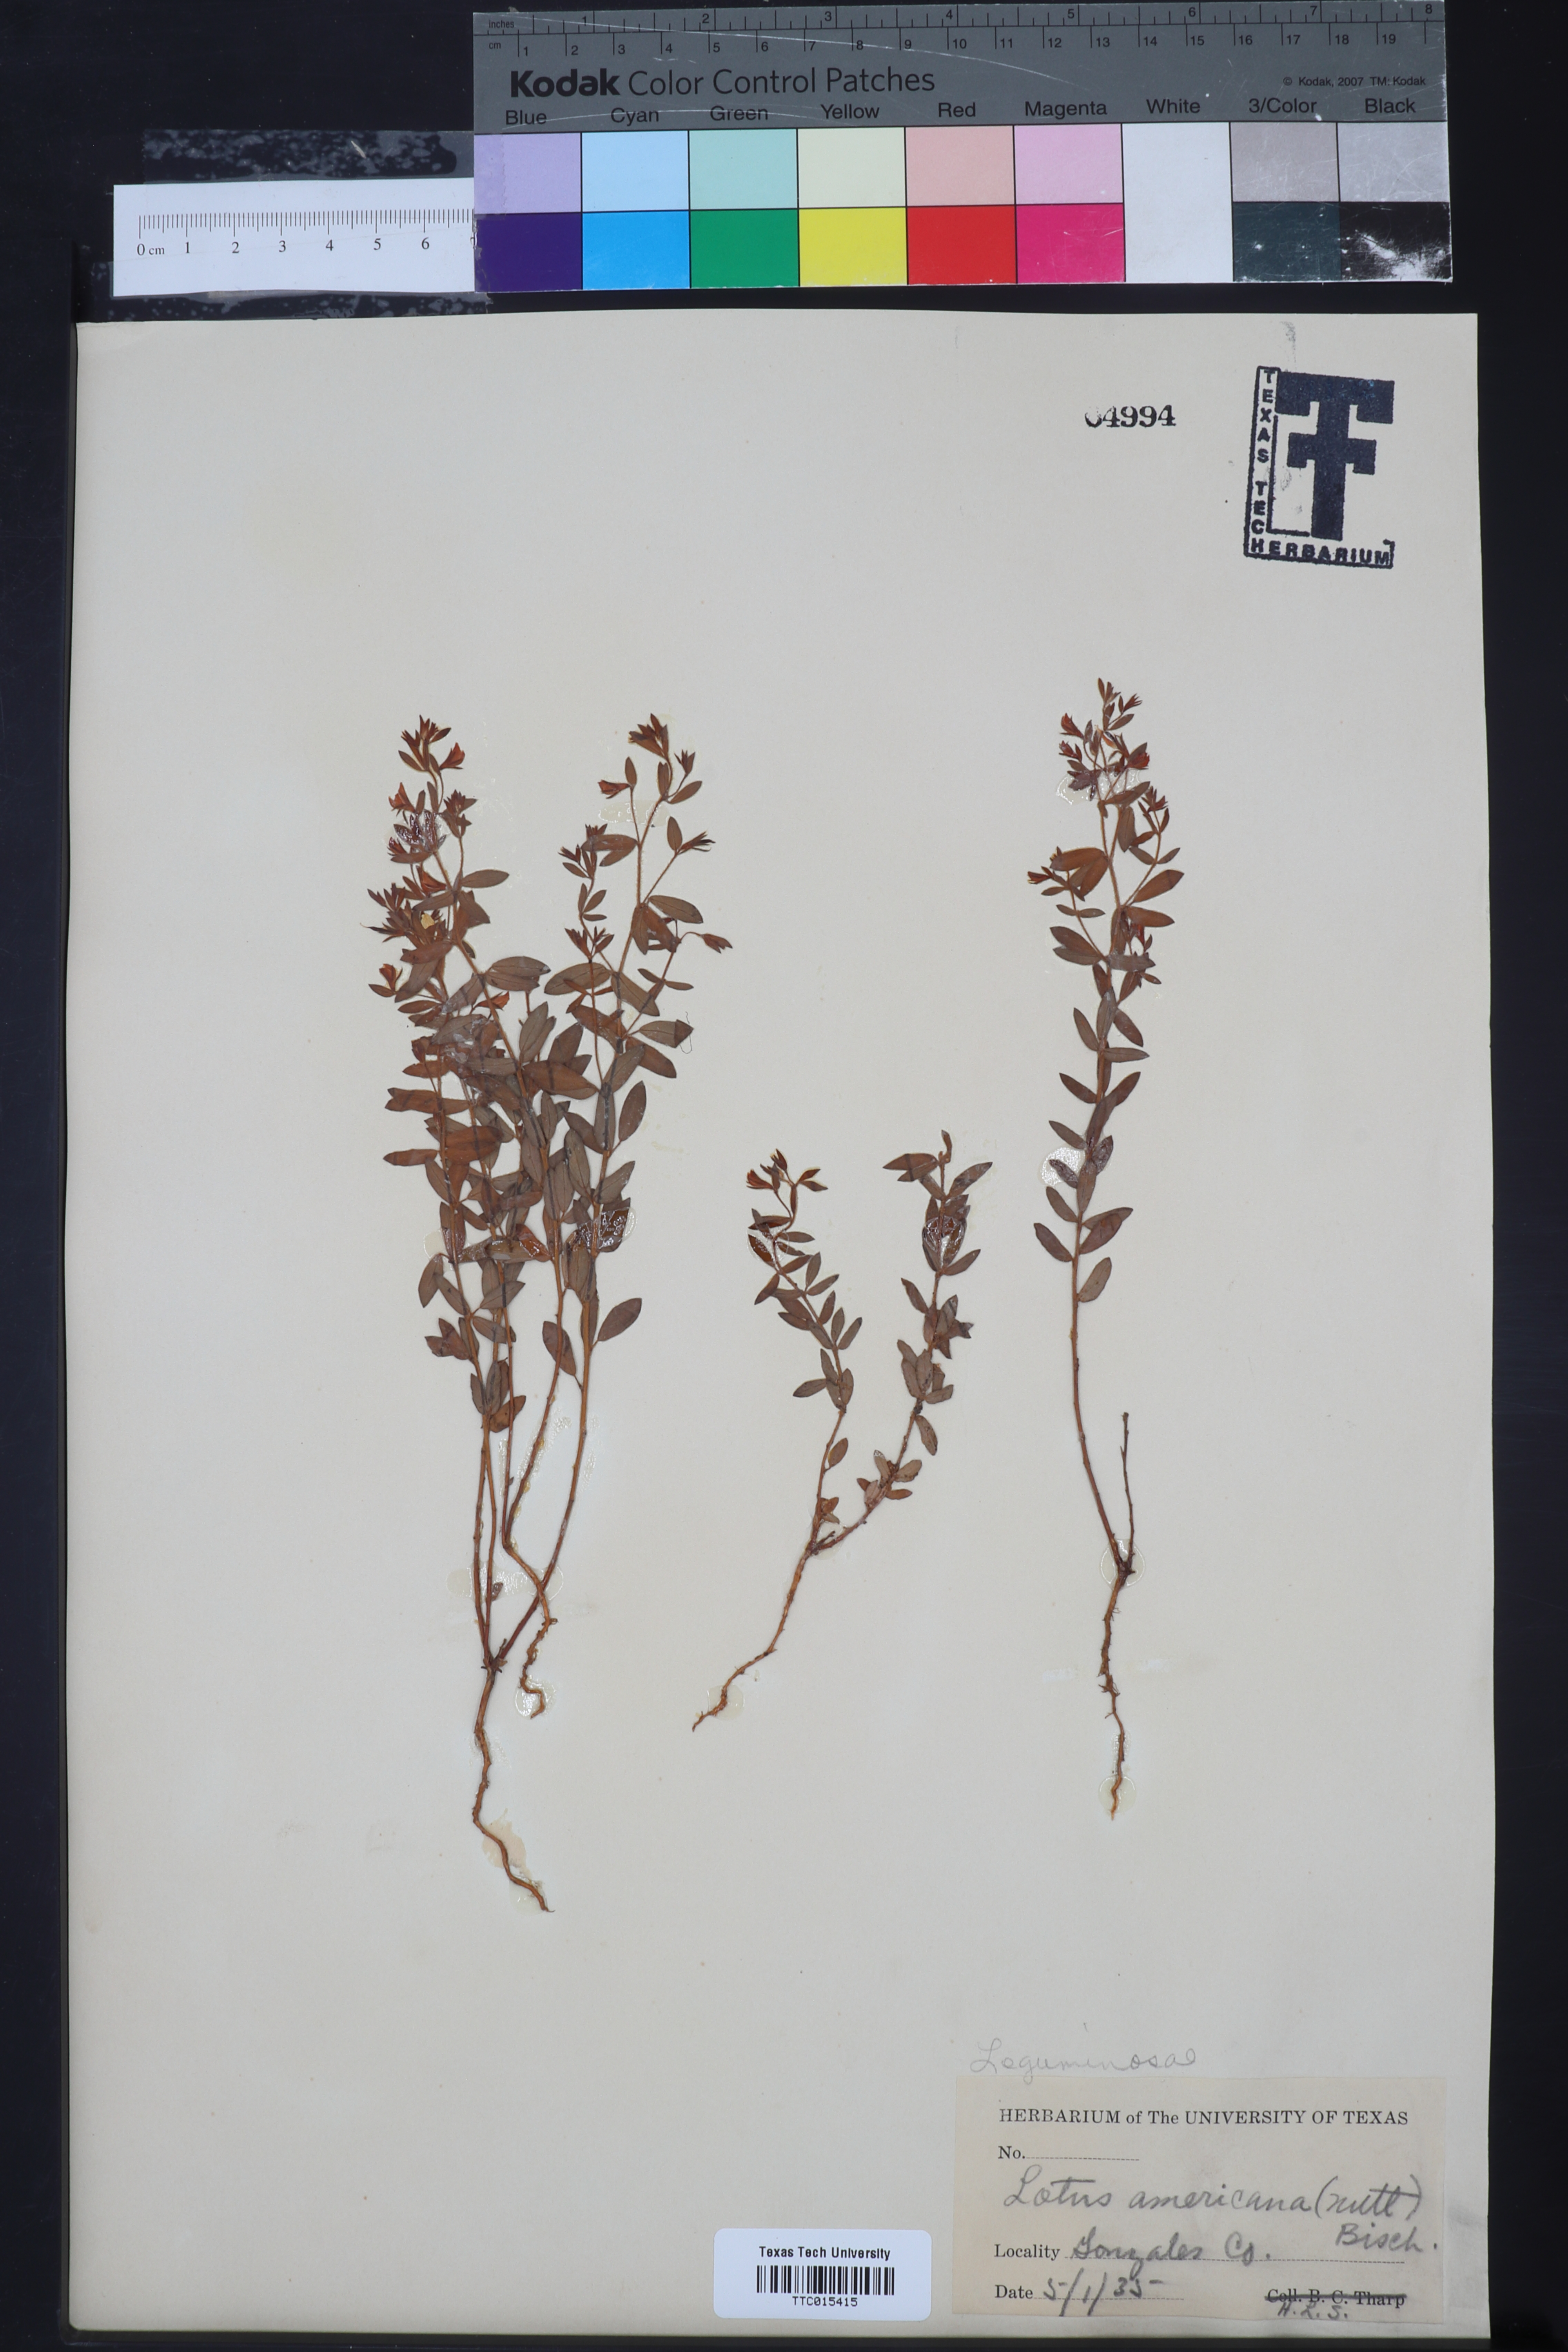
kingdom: Plantae
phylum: Tracheophyta
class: Magnoliopsida
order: Fabales
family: Fabaceae
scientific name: Fabaceae
